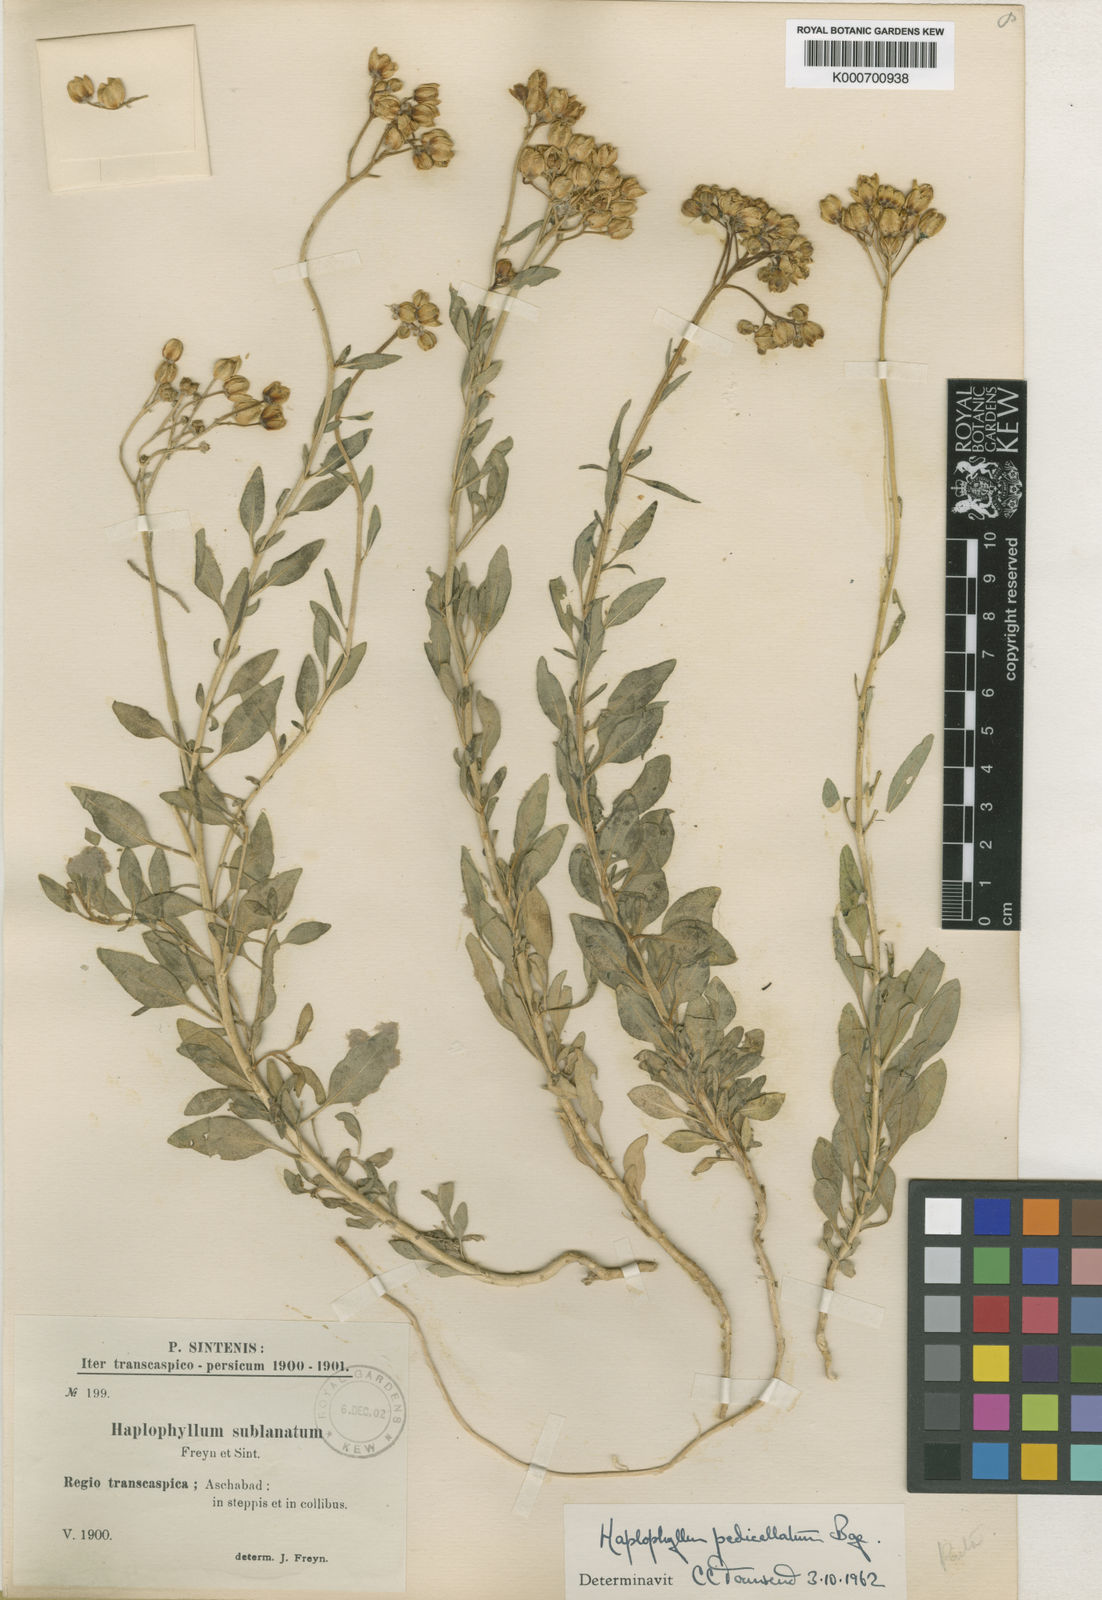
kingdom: Plantae
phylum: Tracheophyta
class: Magnoliopsida
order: Sapindales
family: Rutaceae
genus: Haplophyllum
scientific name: Haplophyllum
